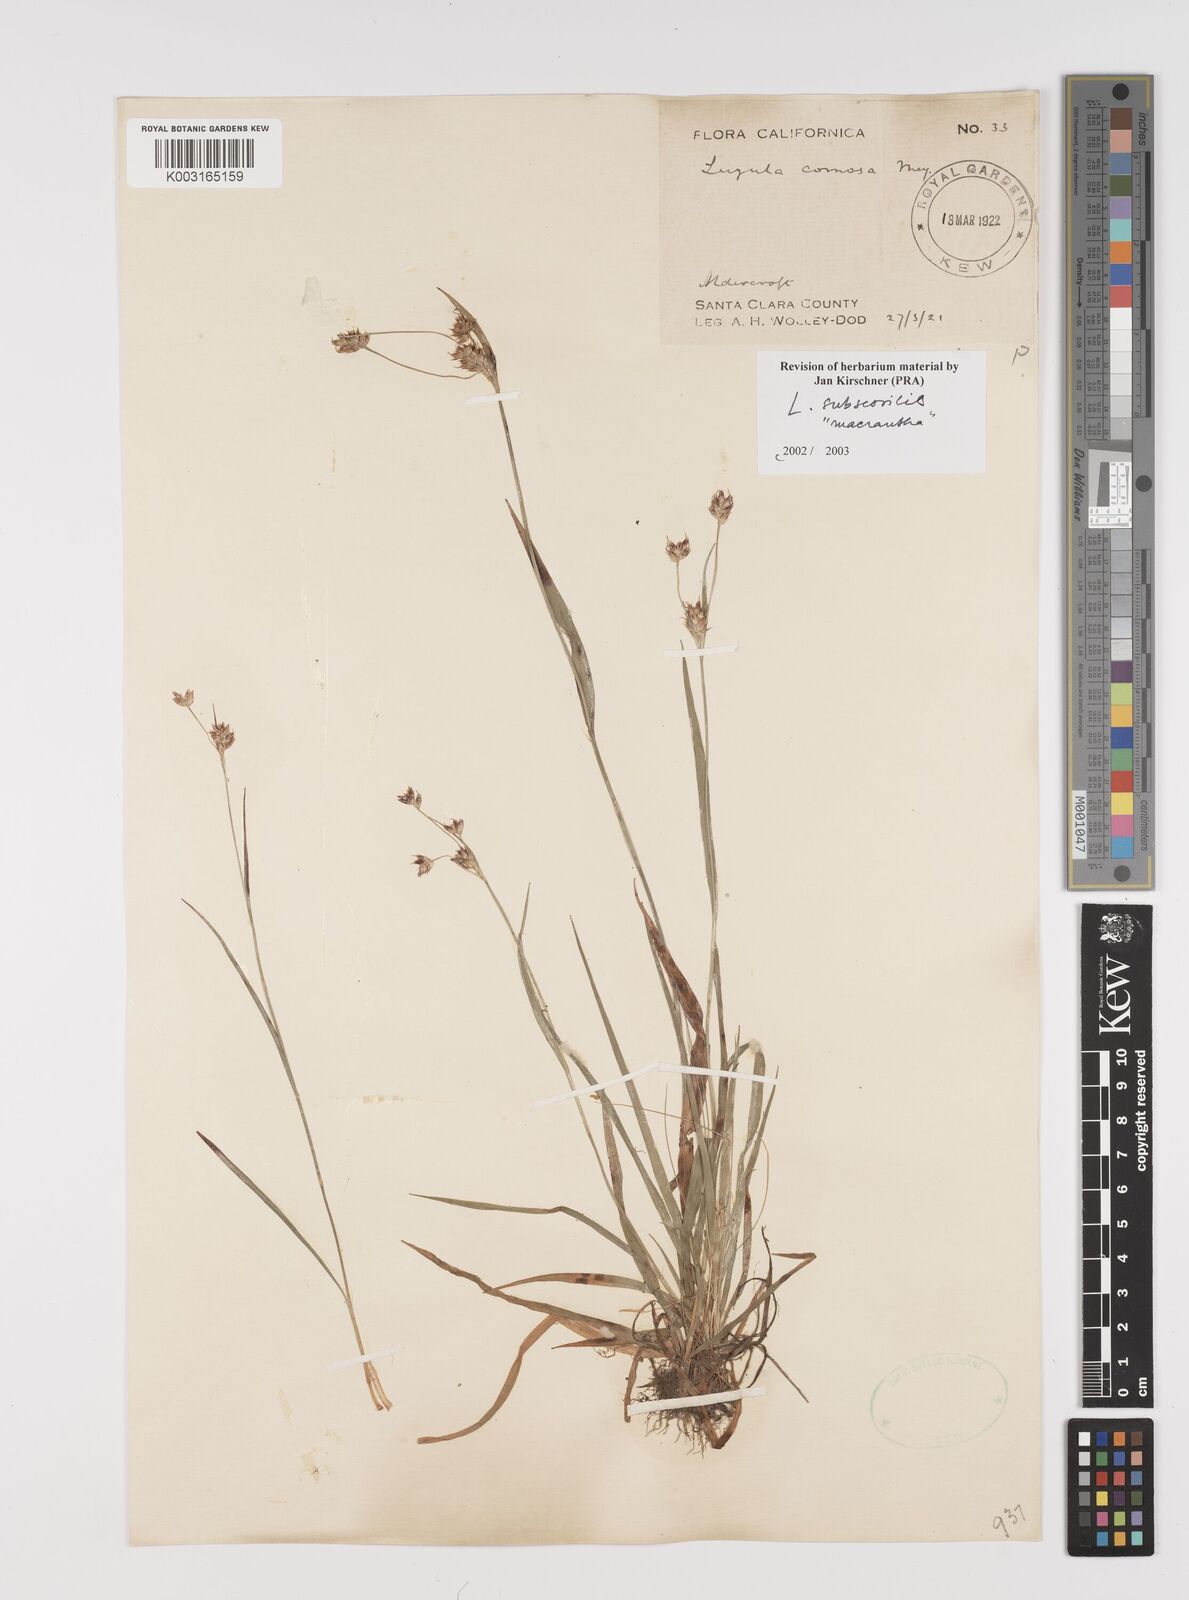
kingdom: Plantae
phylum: Tracheophyta
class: Liliopsida
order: Poales
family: Juncaceae
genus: Luzula
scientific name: Luzula macrantha
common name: Large-anthered woodrush
